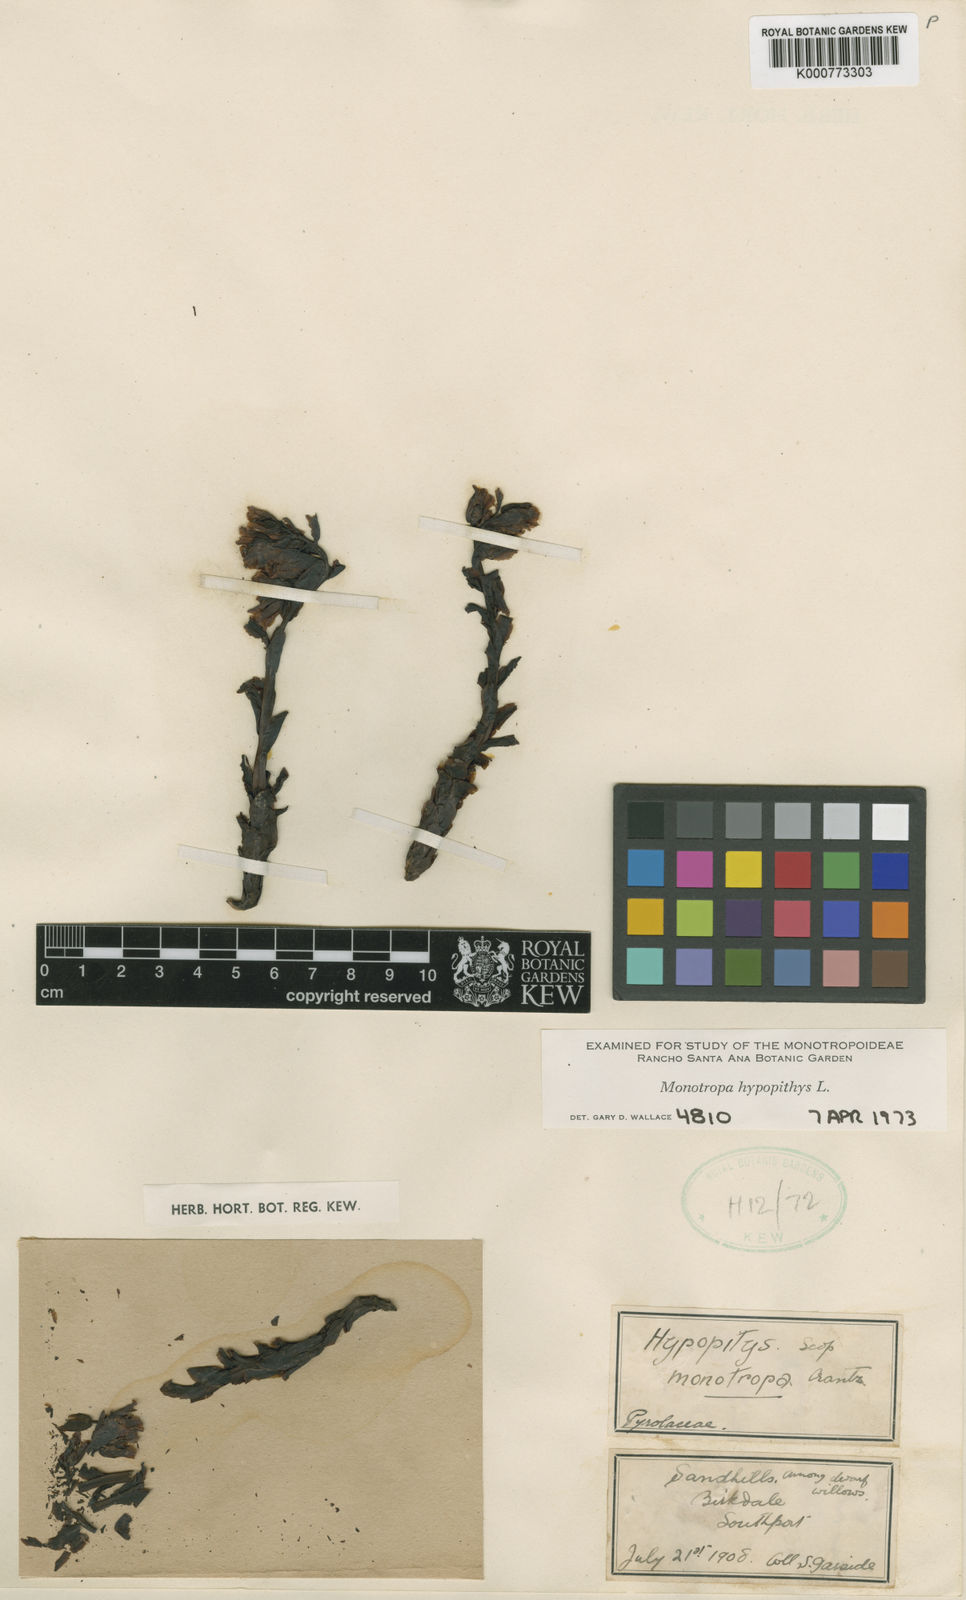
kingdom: Plantae
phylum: Tracheophyta
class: Magnoliopsida
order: Ericales
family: Ericaceae
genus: Monotropa
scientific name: Monotropa
